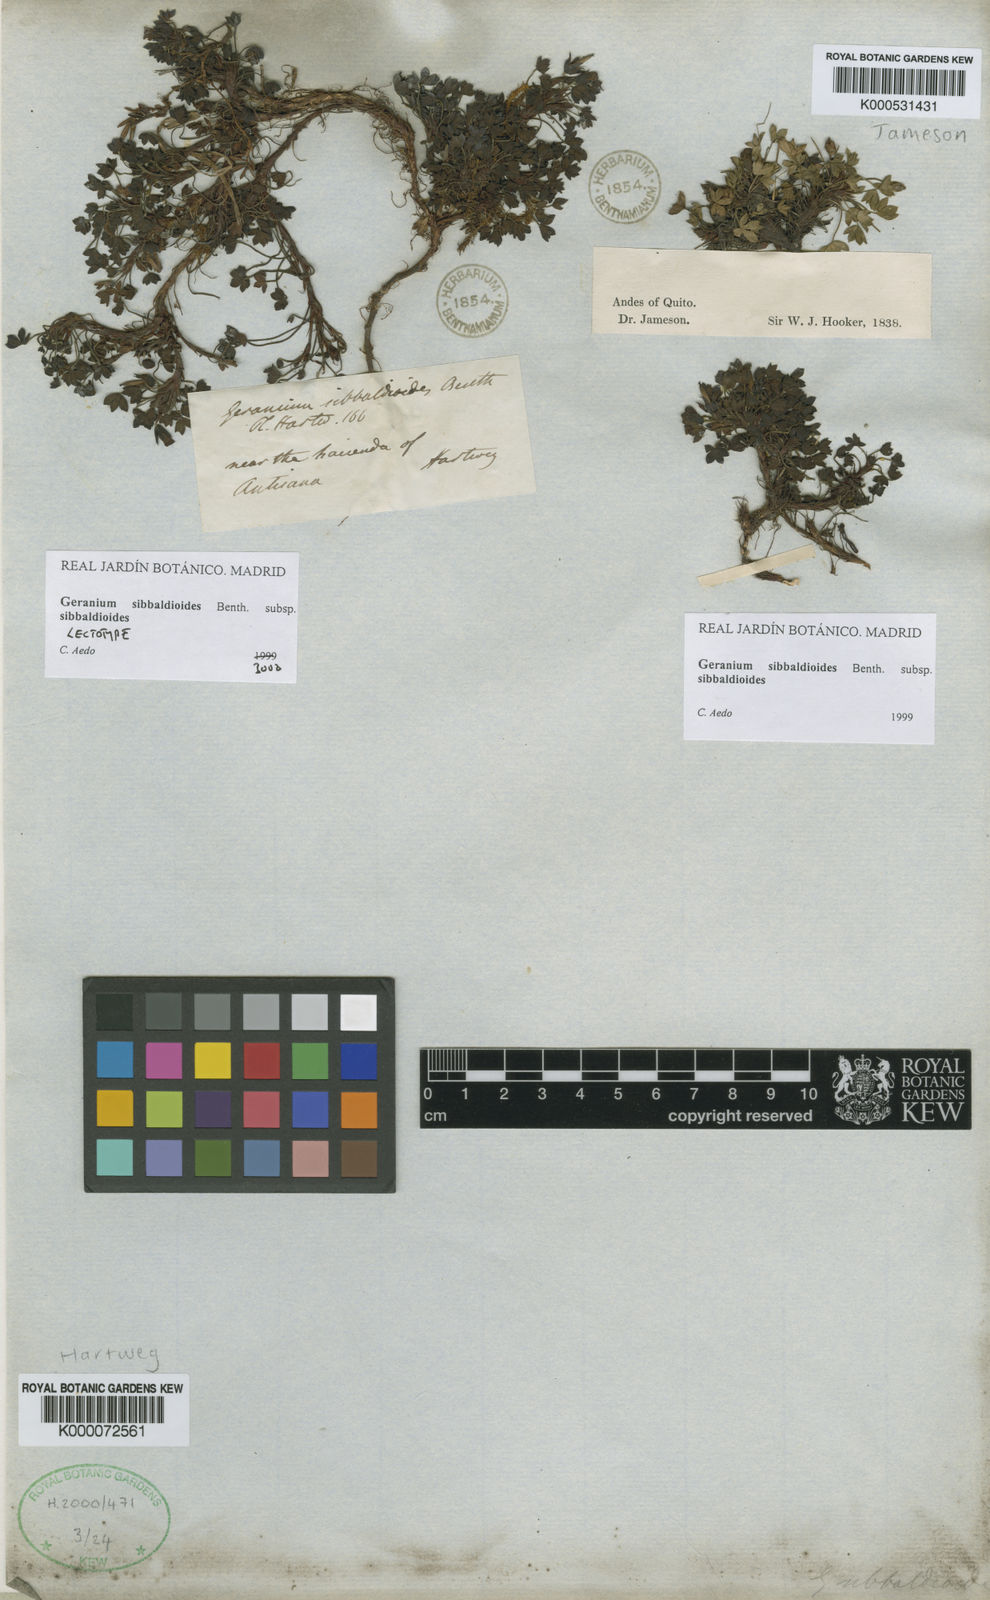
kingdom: Plantae
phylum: Tracheophyta
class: Magnoliopsida
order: Geraniales
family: Geraniaceae
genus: Geranium
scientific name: Geranium sibbaldioides
